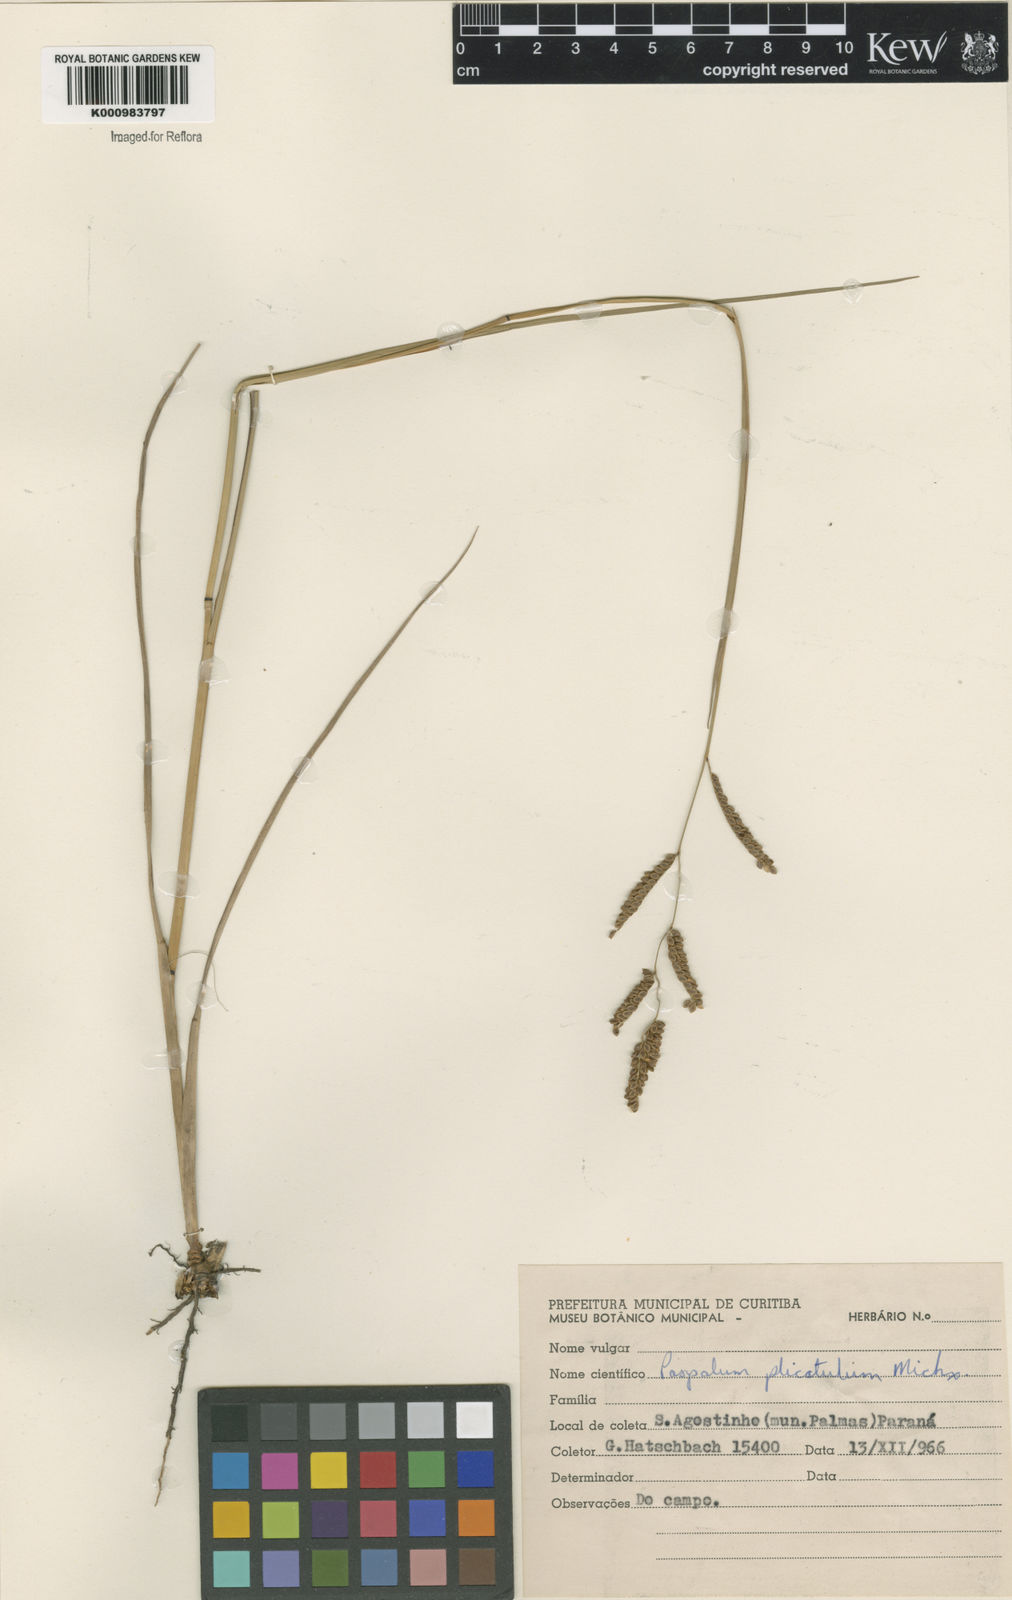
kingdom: Plantae
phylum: Tracheophyta
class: Liliopsida
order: Poales
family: Poaceae
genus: Paspalum
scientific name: Paspalum plicatulum
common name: Top paspalum
